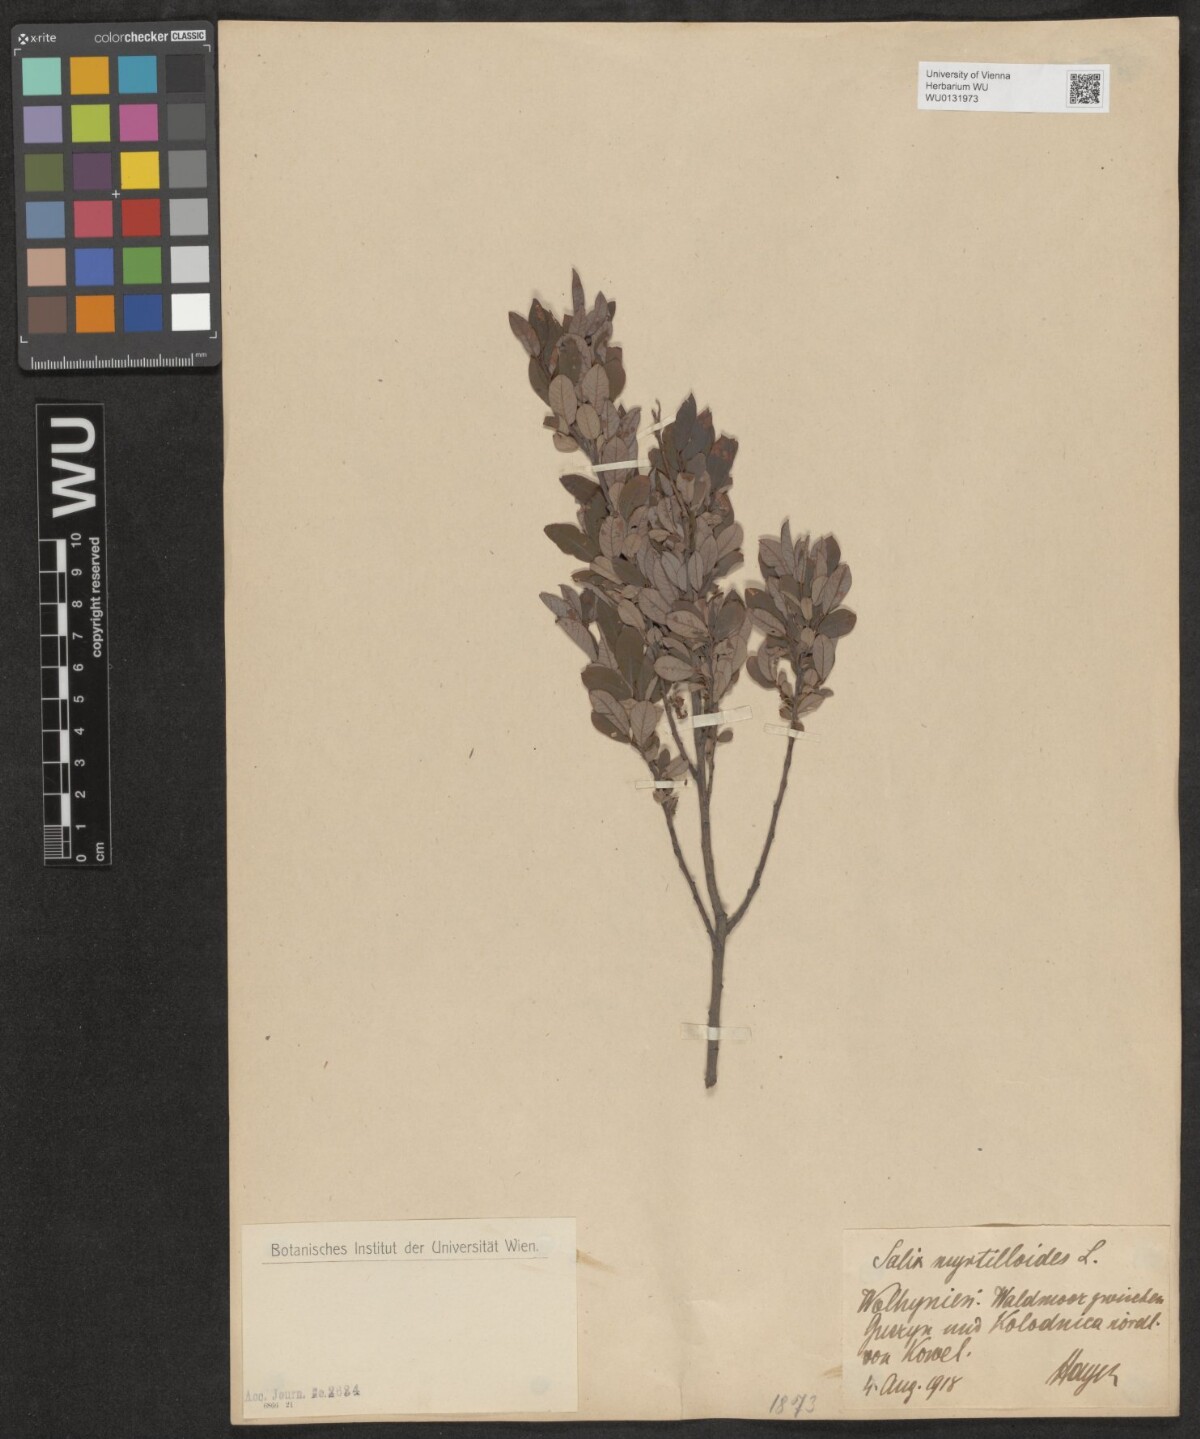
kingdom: Plantae
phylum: Tracheophyta
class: Magnoliopsida
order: Malpighiales
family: Salicaceae
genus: Salix
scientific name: Salix myrtilloides
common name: Myrtle-leaved willow
